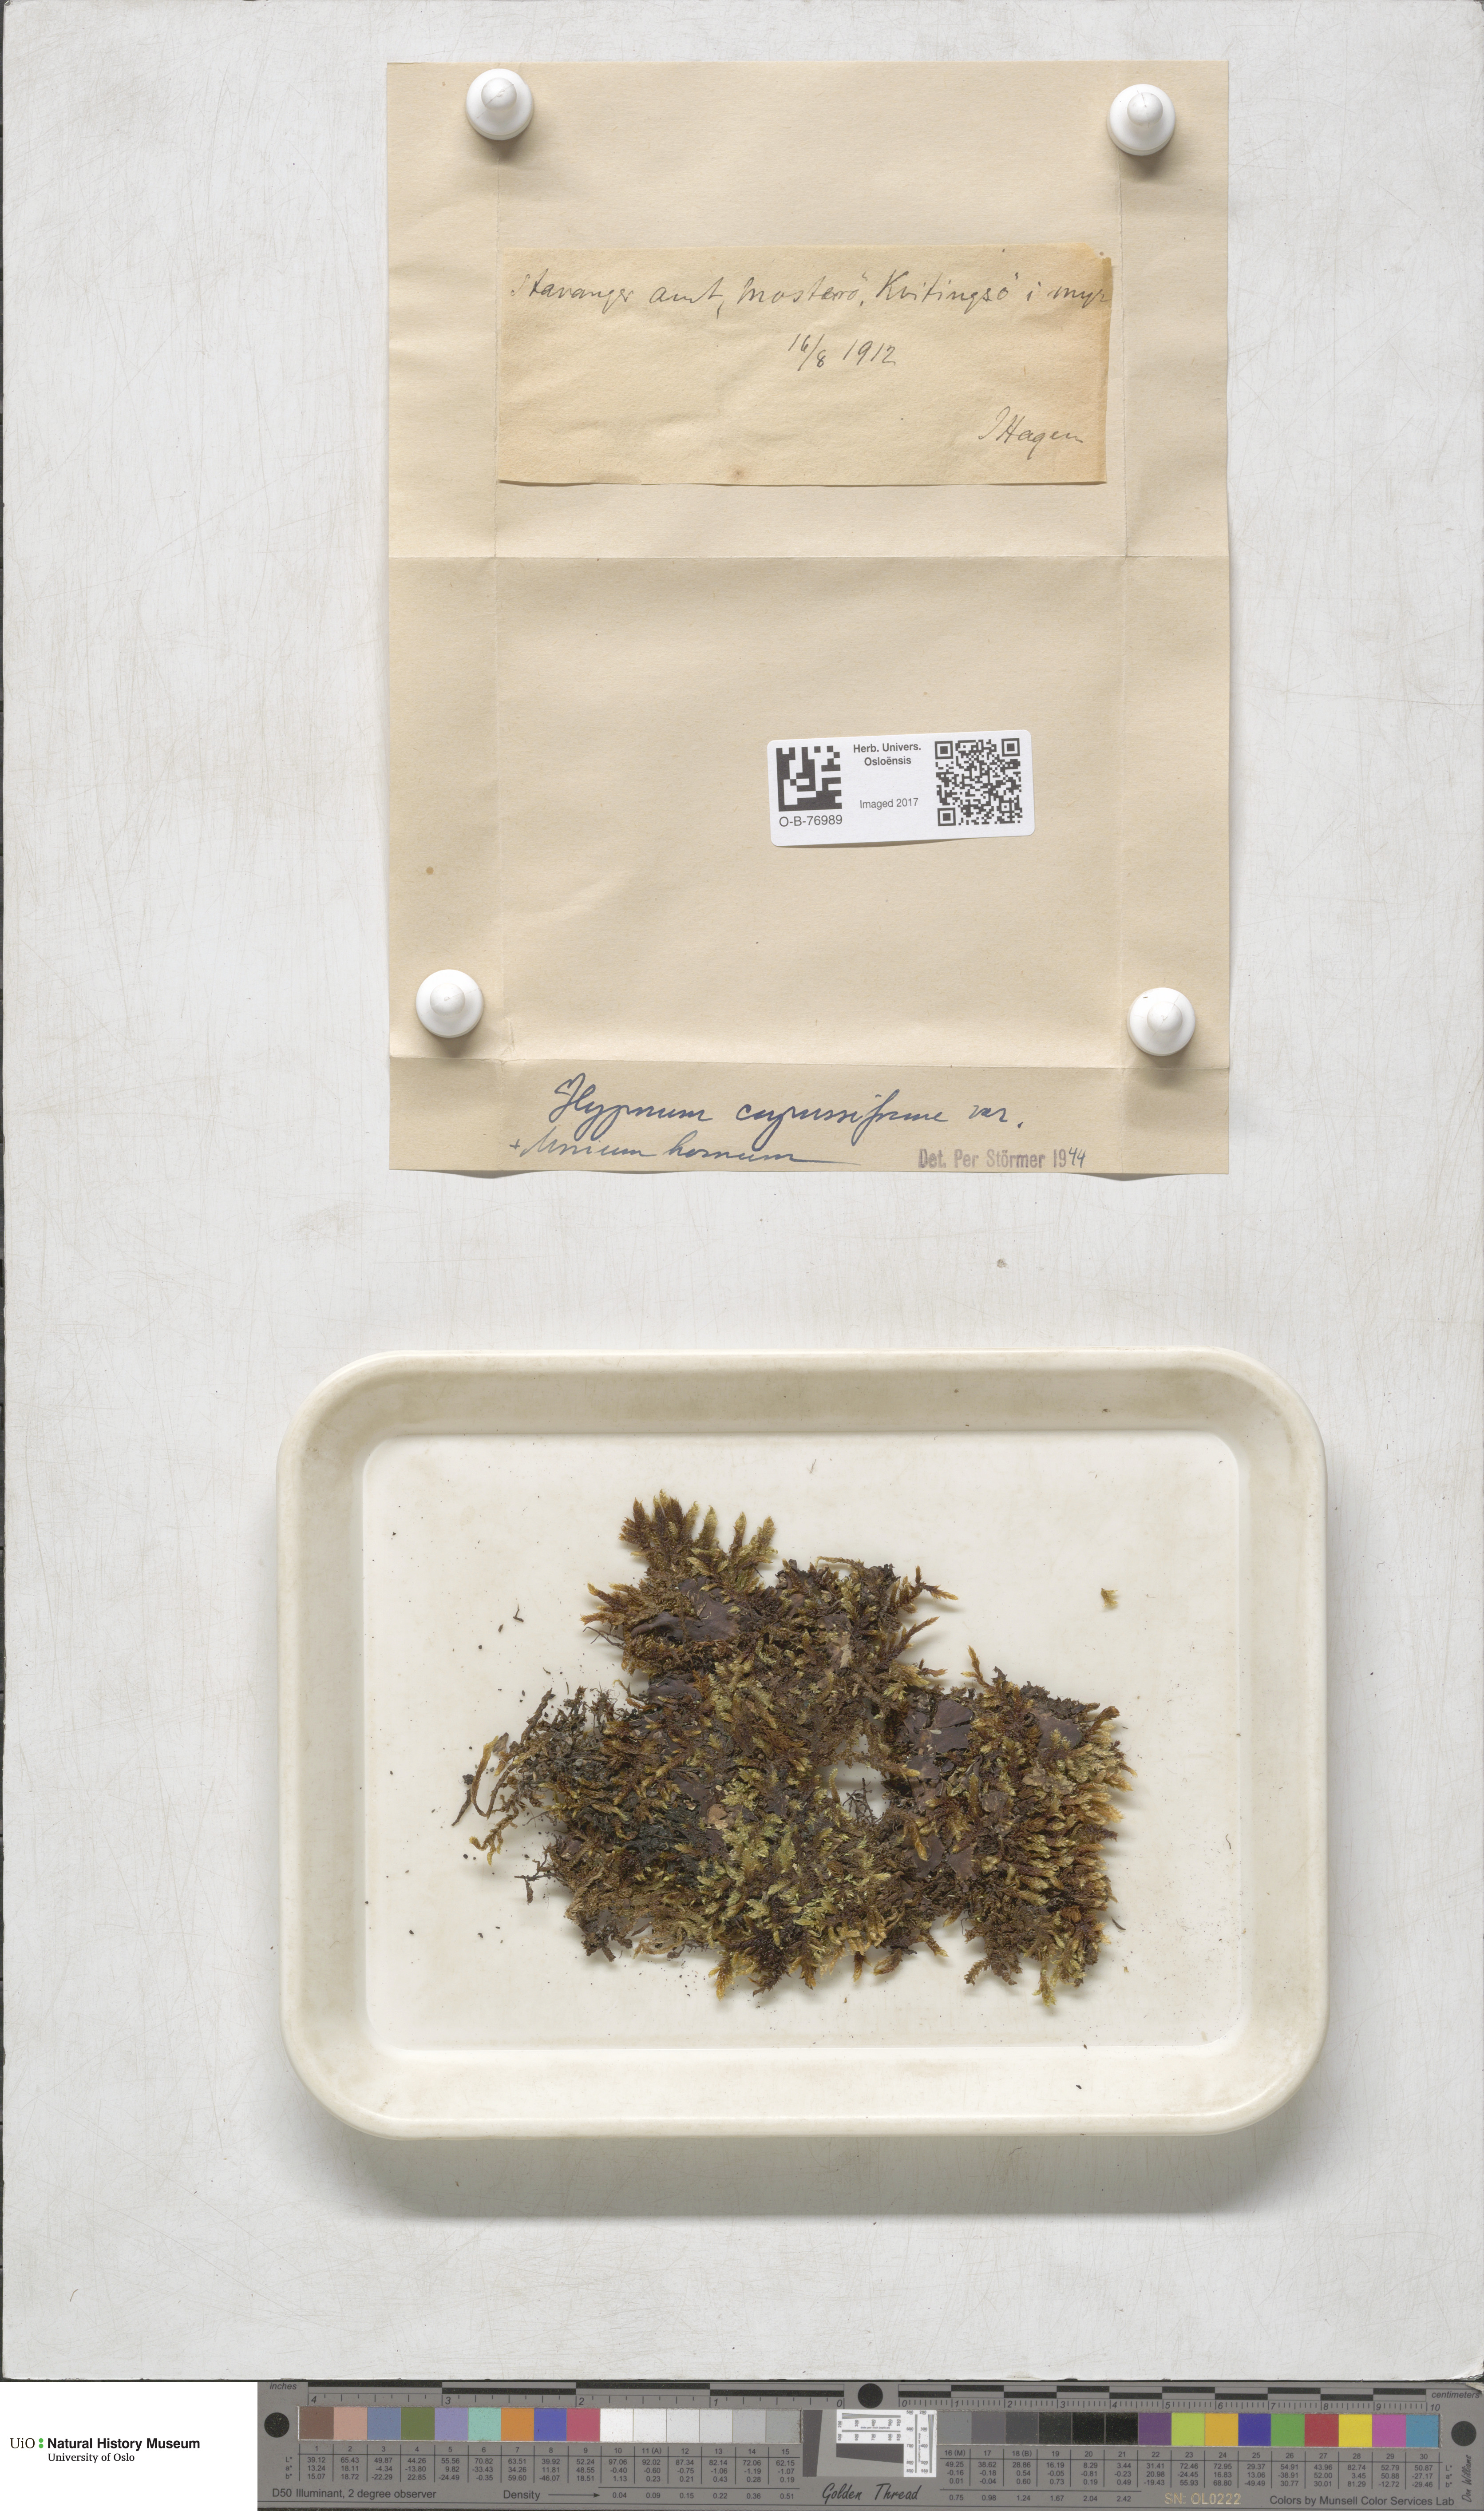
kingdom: Plantae
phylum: Bryophyta
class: Bryopsida
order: Hypnales
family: Hypnaceae
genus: Hypnum
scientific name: Hypnum cupressiforme
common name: Cypress-leaved plait-moss
